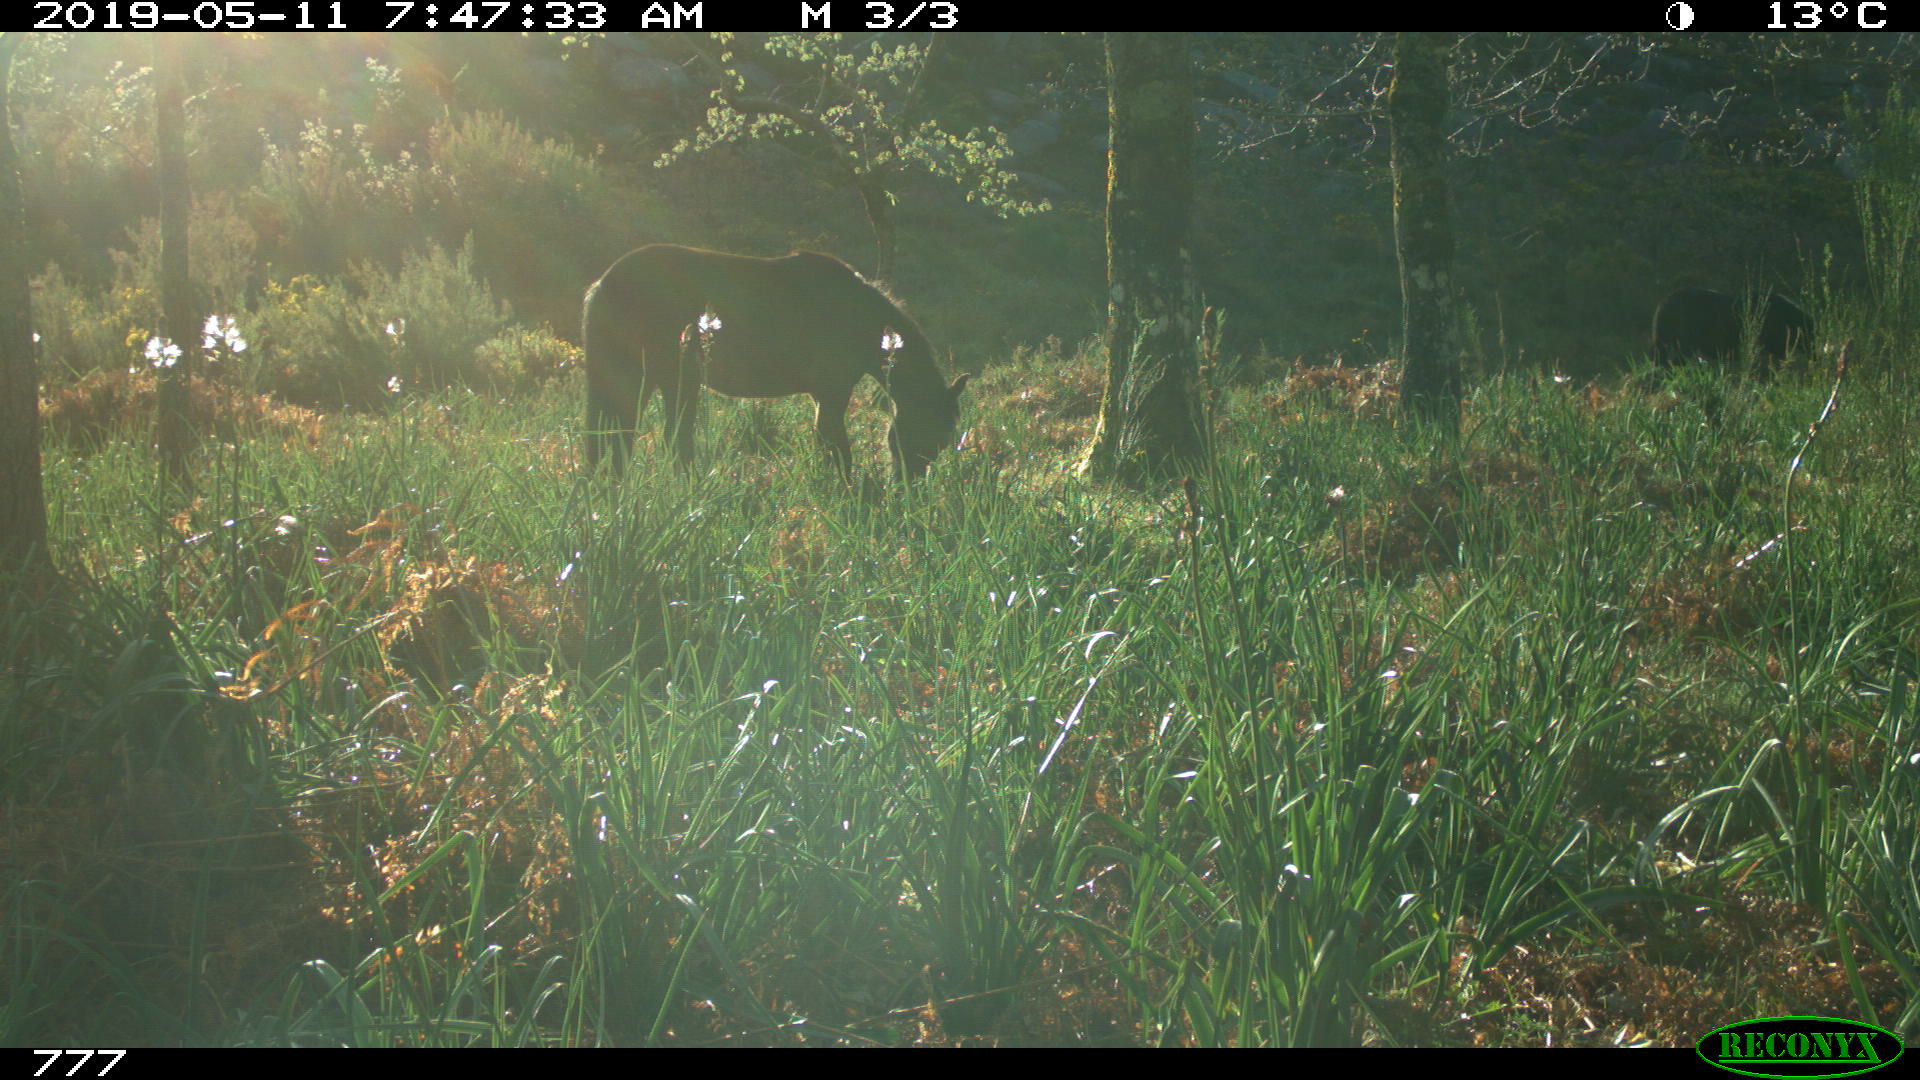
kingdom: Animalia
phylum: Chordata
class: Mammalia
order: Perissodactyla
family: Equidae
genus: Equus
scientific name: Equus caballus
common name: Horse
